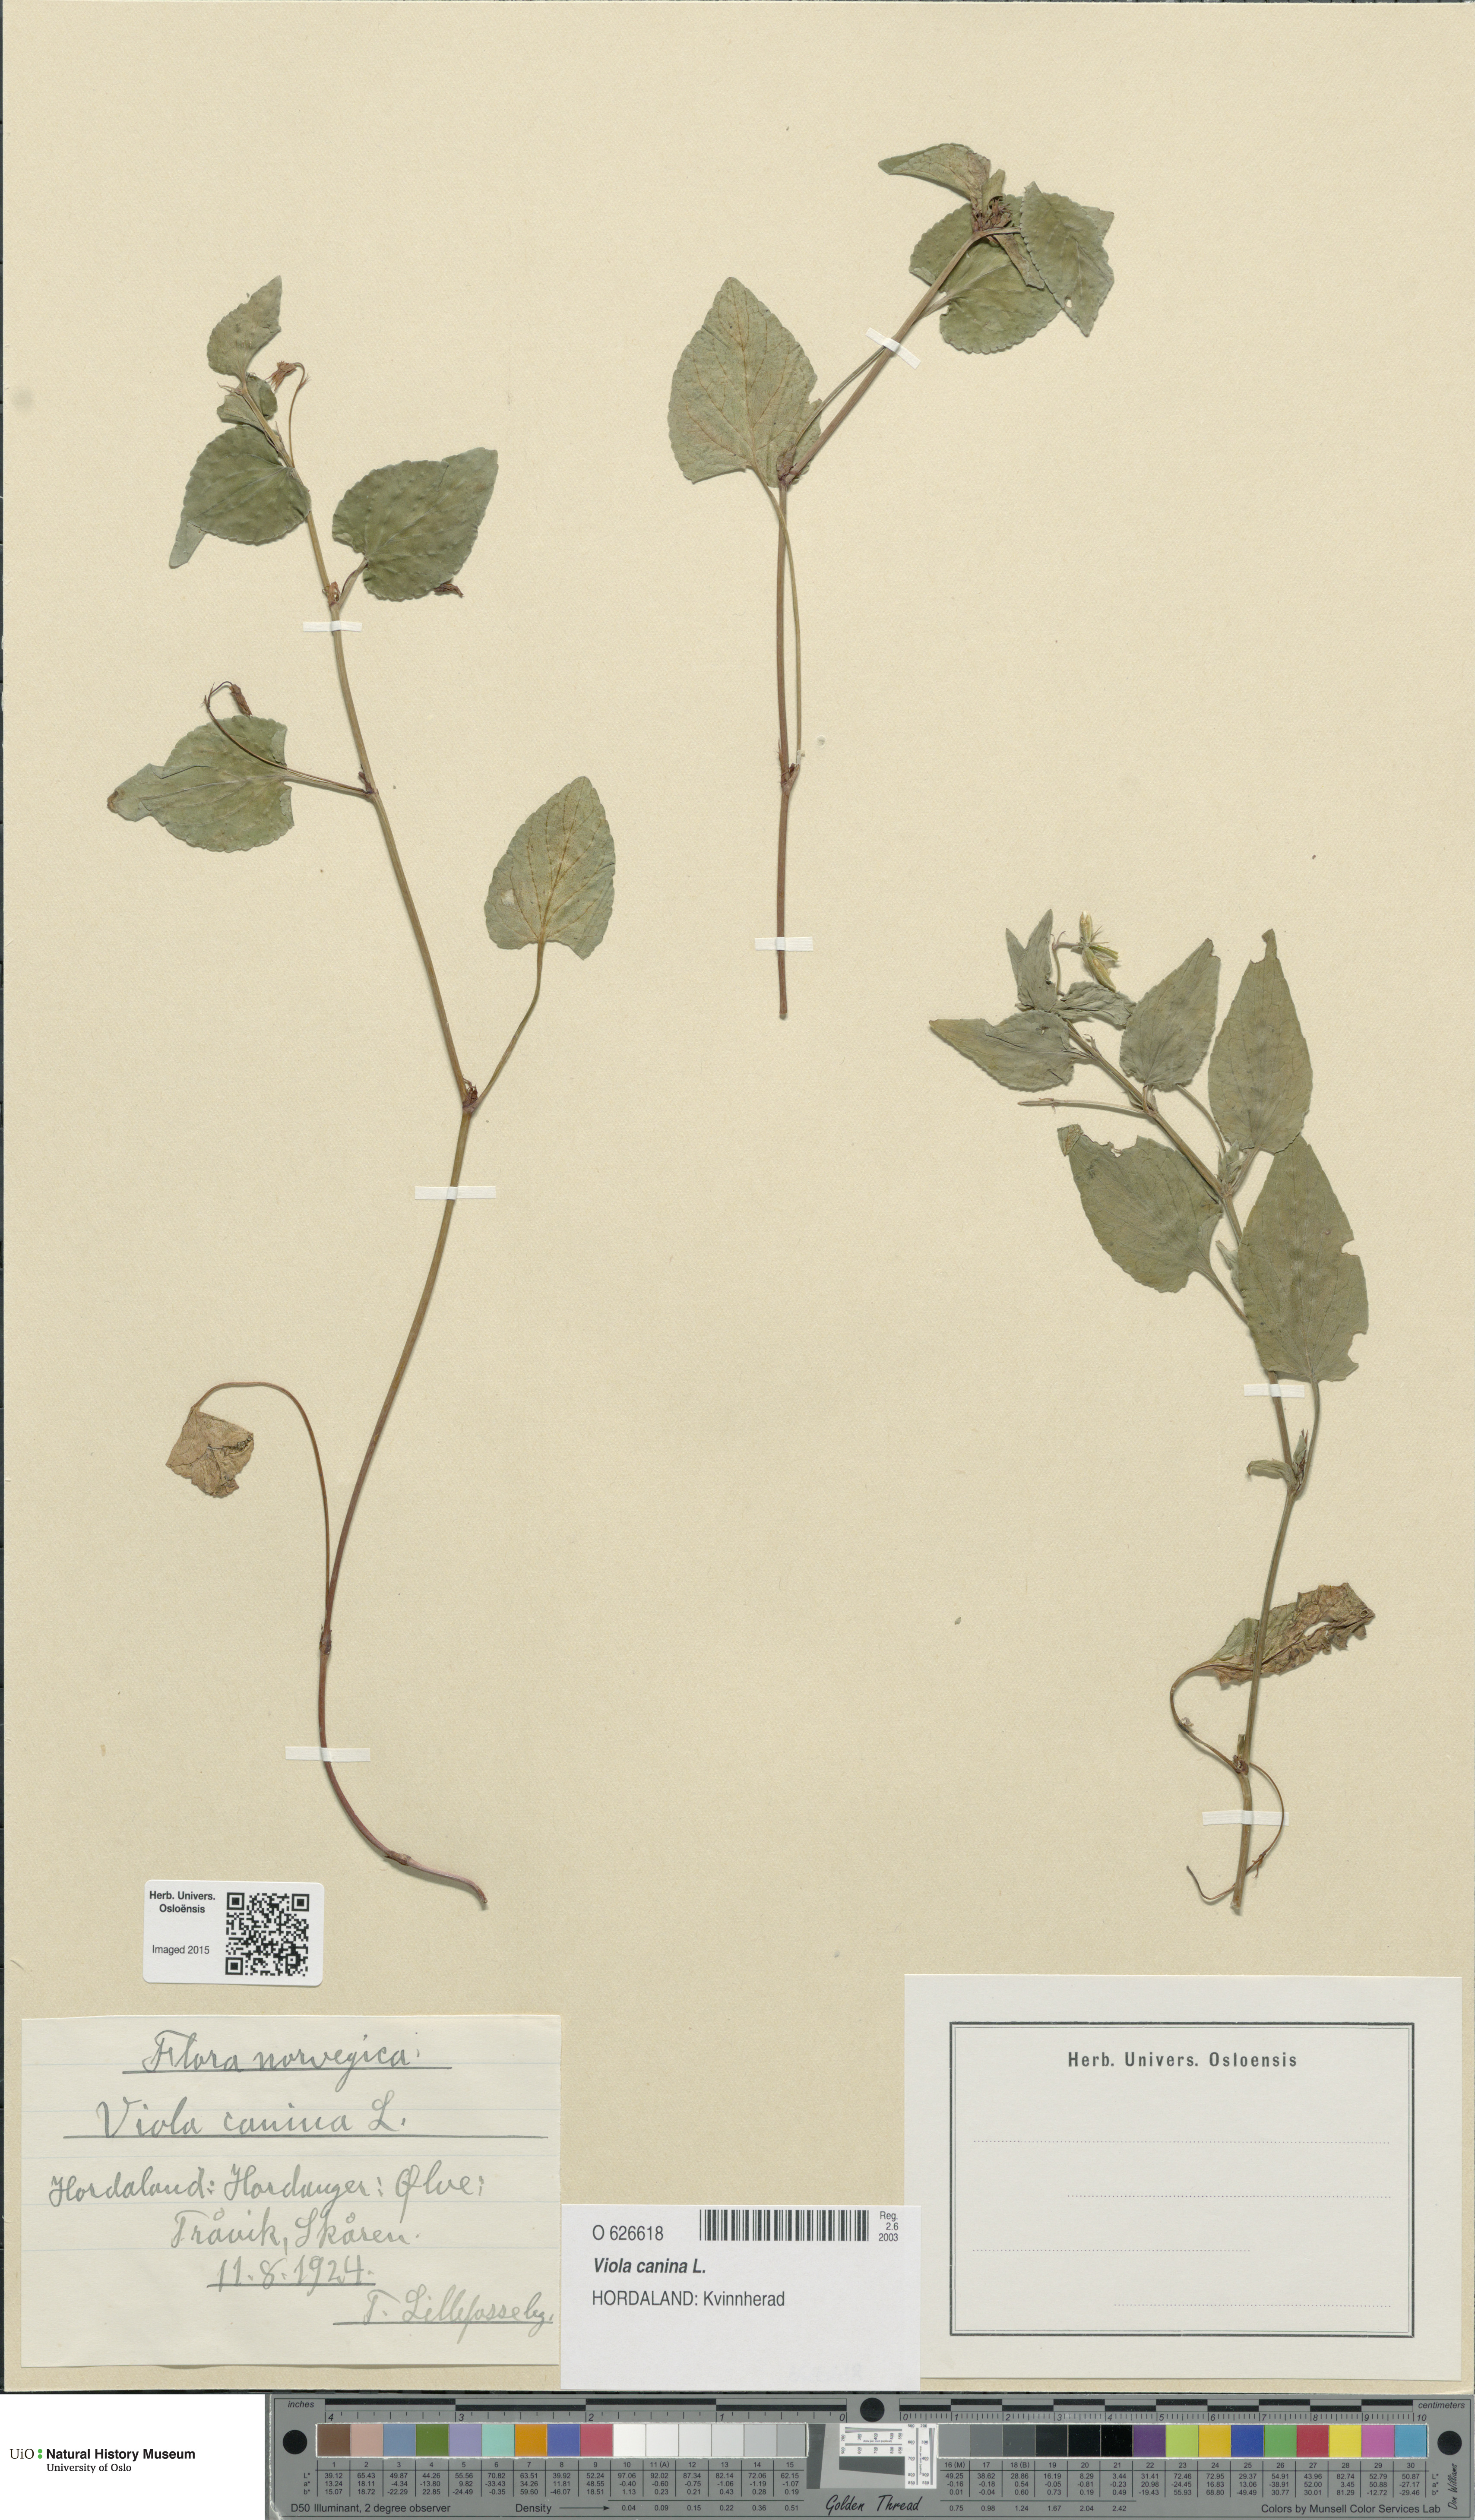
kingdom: Plantae
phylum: Tracheophyta
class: Magnoliopsida
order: Malpighiales
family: Violaceae
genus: Viola
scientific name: Viola canina
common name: Heath dog-violet
